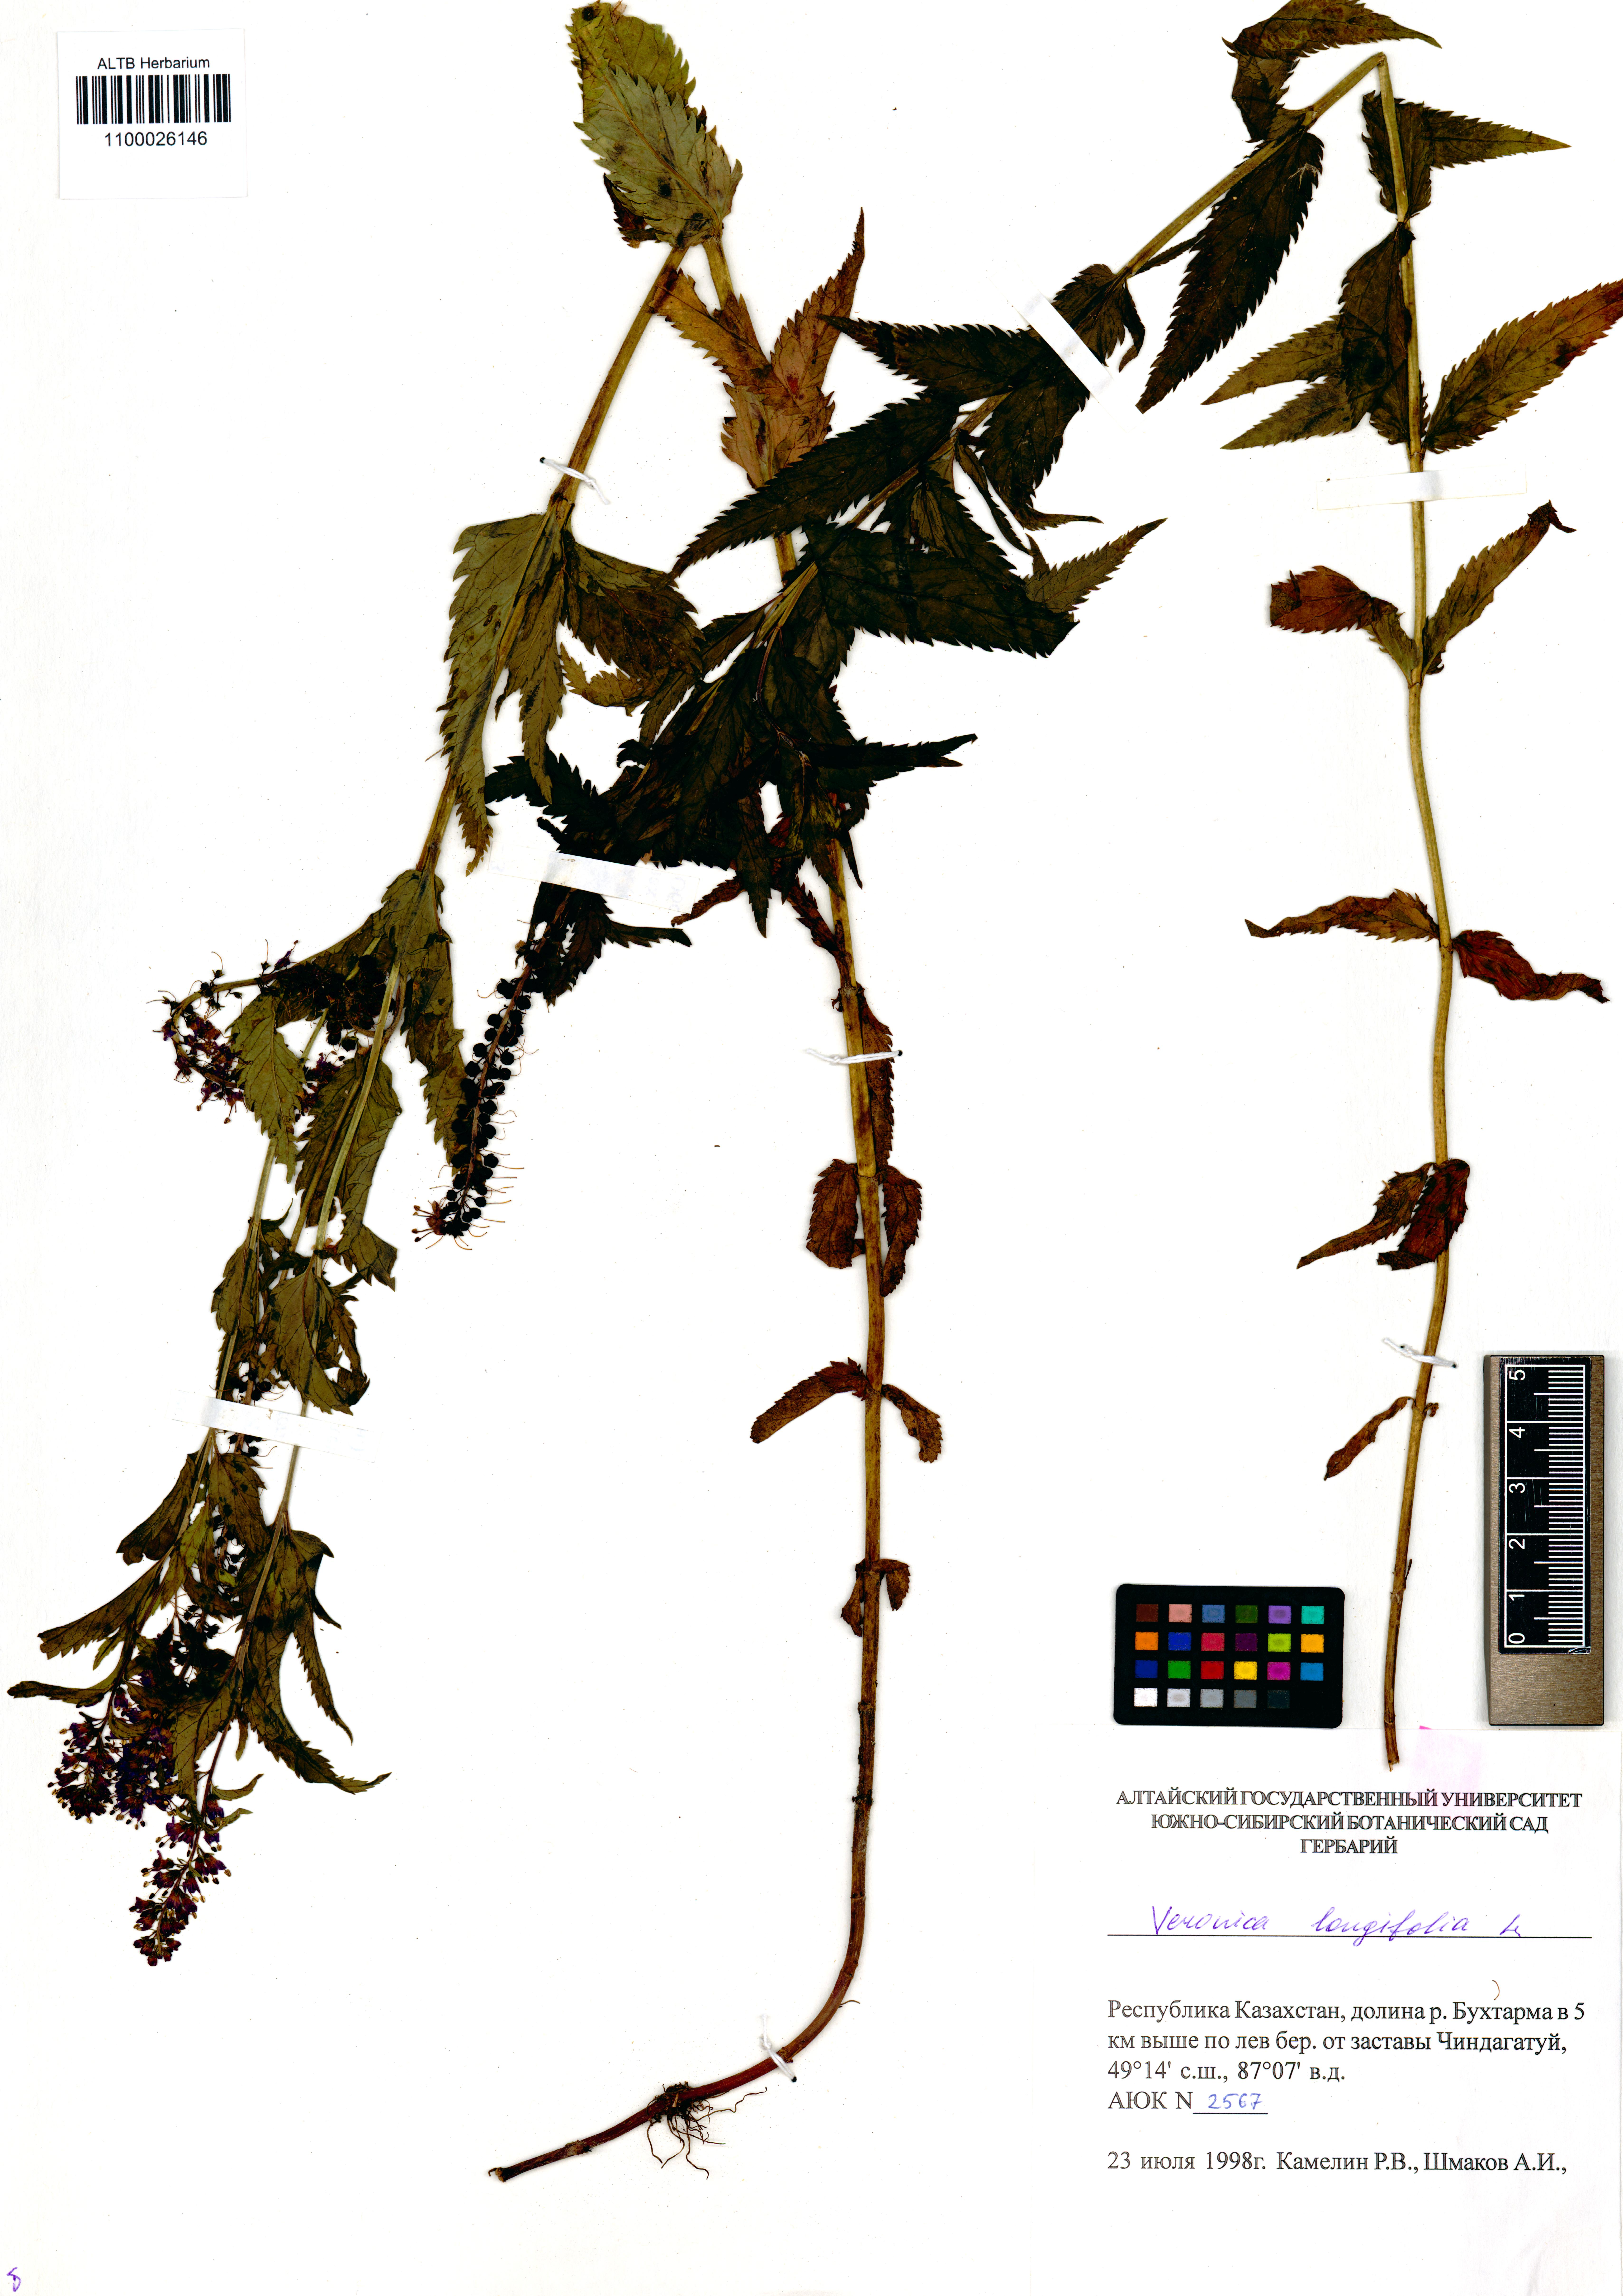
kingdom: Plantae
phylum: Tracheophyta
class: Magnoliopsida
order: Lamiales
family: Plantaginaceae
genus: Veronica
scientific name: Veronica longifolia
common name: Garden speedwell
